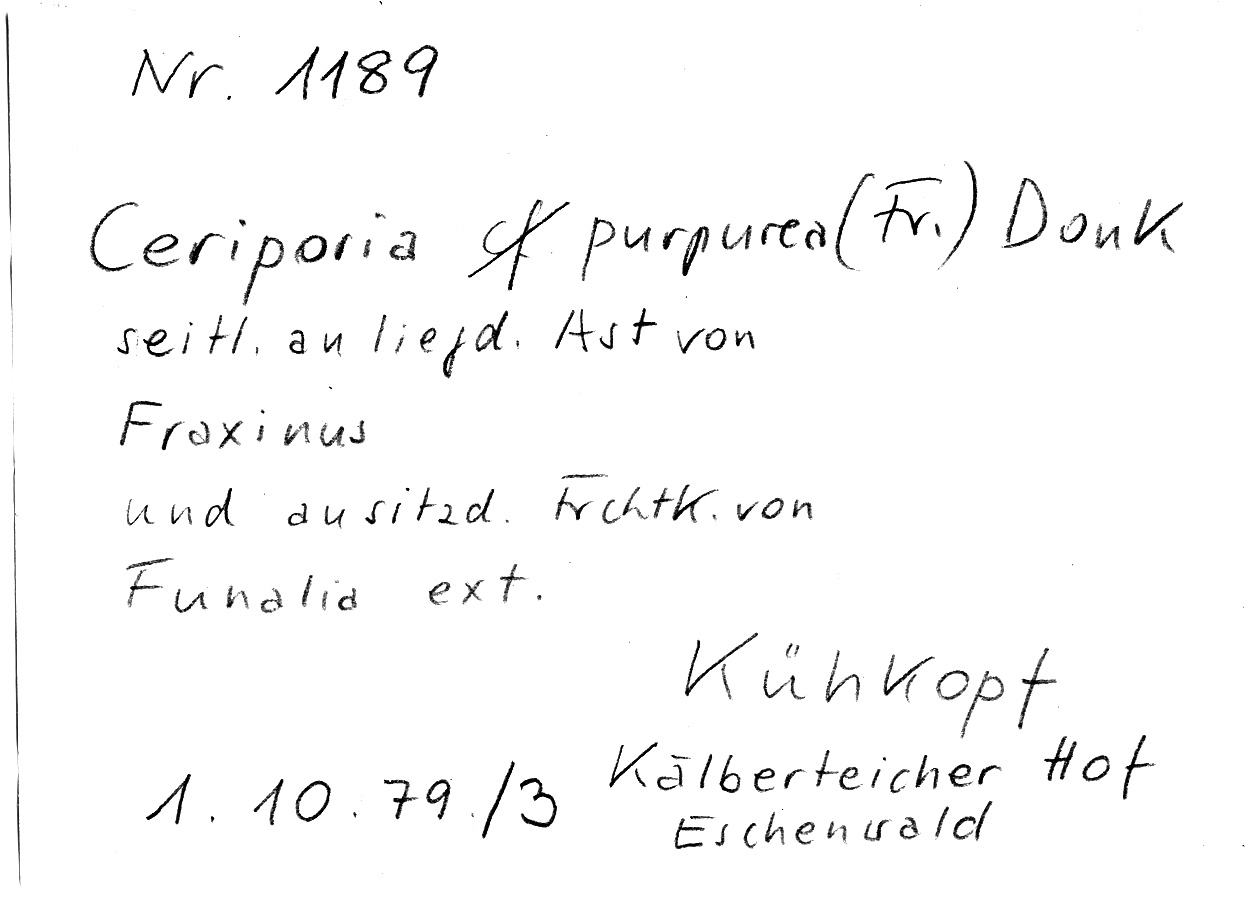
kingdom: Plantae
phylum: Tracheophyta
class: Magnoliopsida
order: Lamiales
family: Oleaceae
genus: Fraxinus
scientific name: Fraxinus
